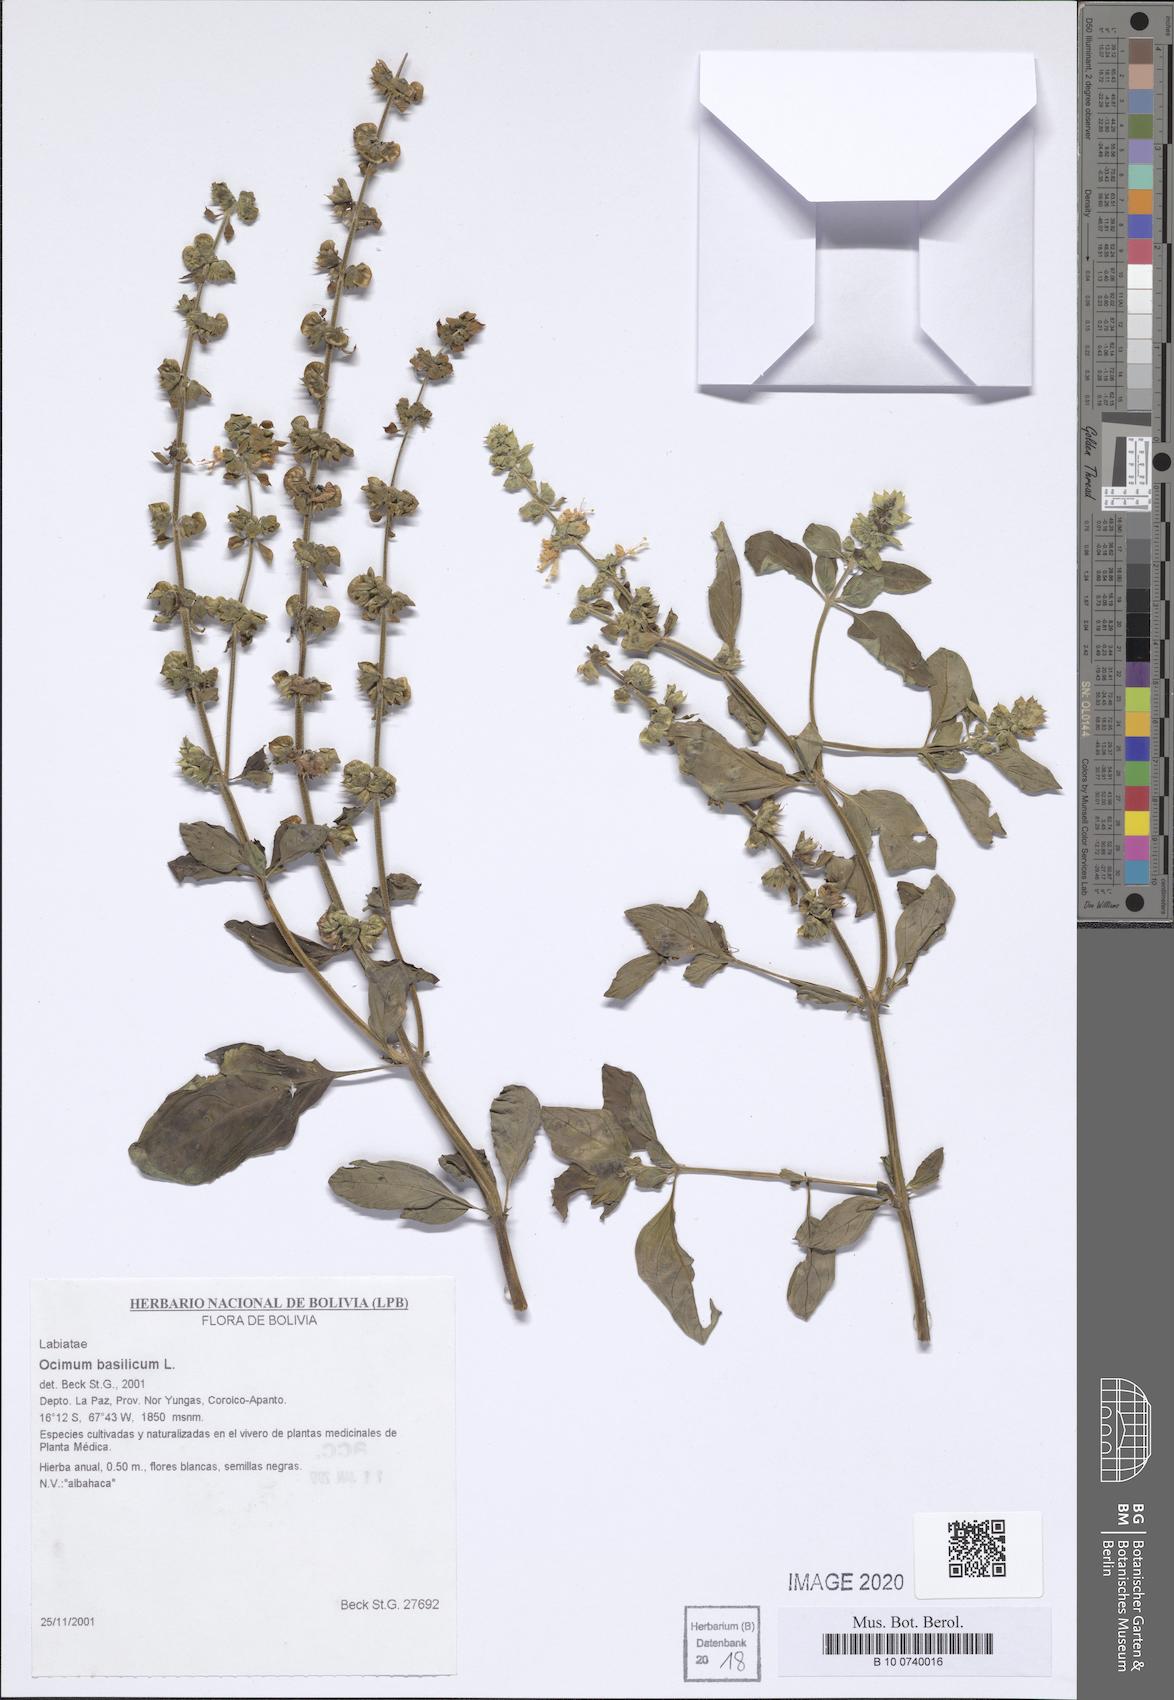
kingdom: Plantae
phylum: Tracheophyta
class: Magnoliopsida
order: Lamiales
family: Lamiaceae
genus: Ocimum
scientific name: Ocimum basilicum
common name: Sweet basil
